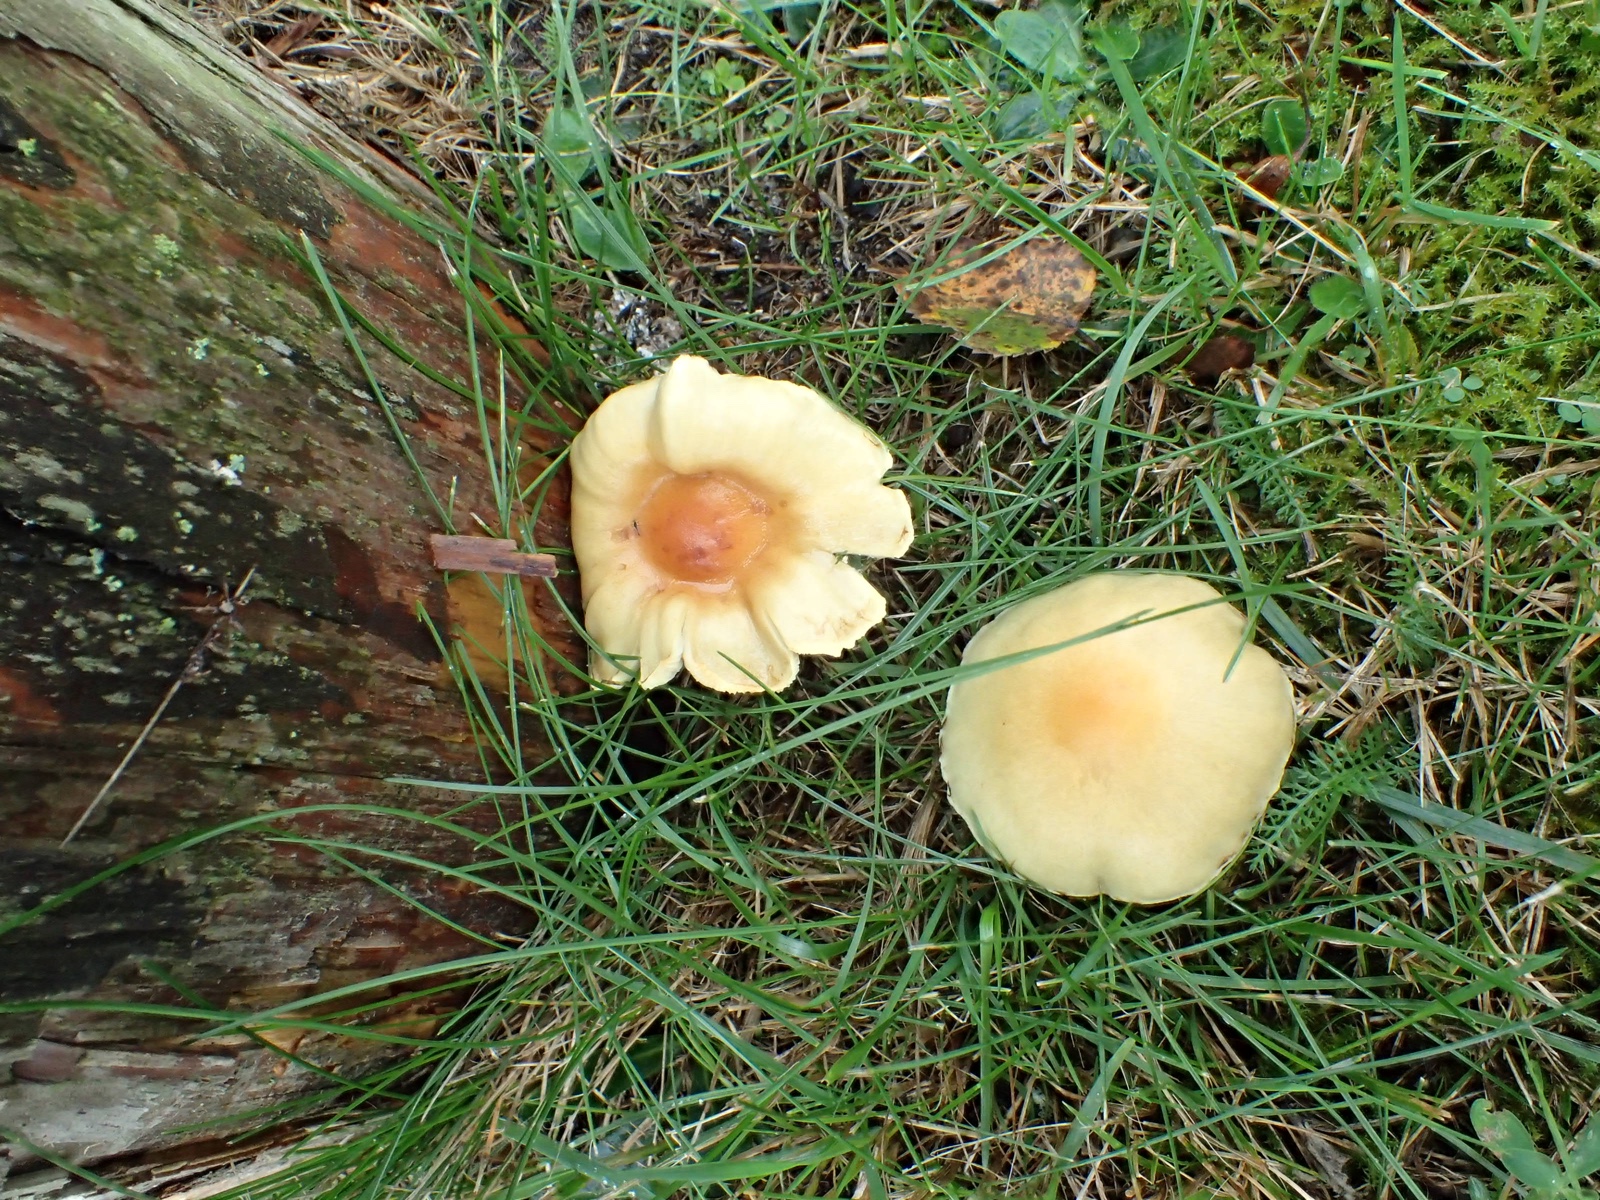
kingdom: Fungi
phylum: Basidiomycota
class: Agaricomycetes
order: Agaricales
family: Strophariaceae
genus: Hypholoma
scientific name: Hypholoma
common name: svovlhat
